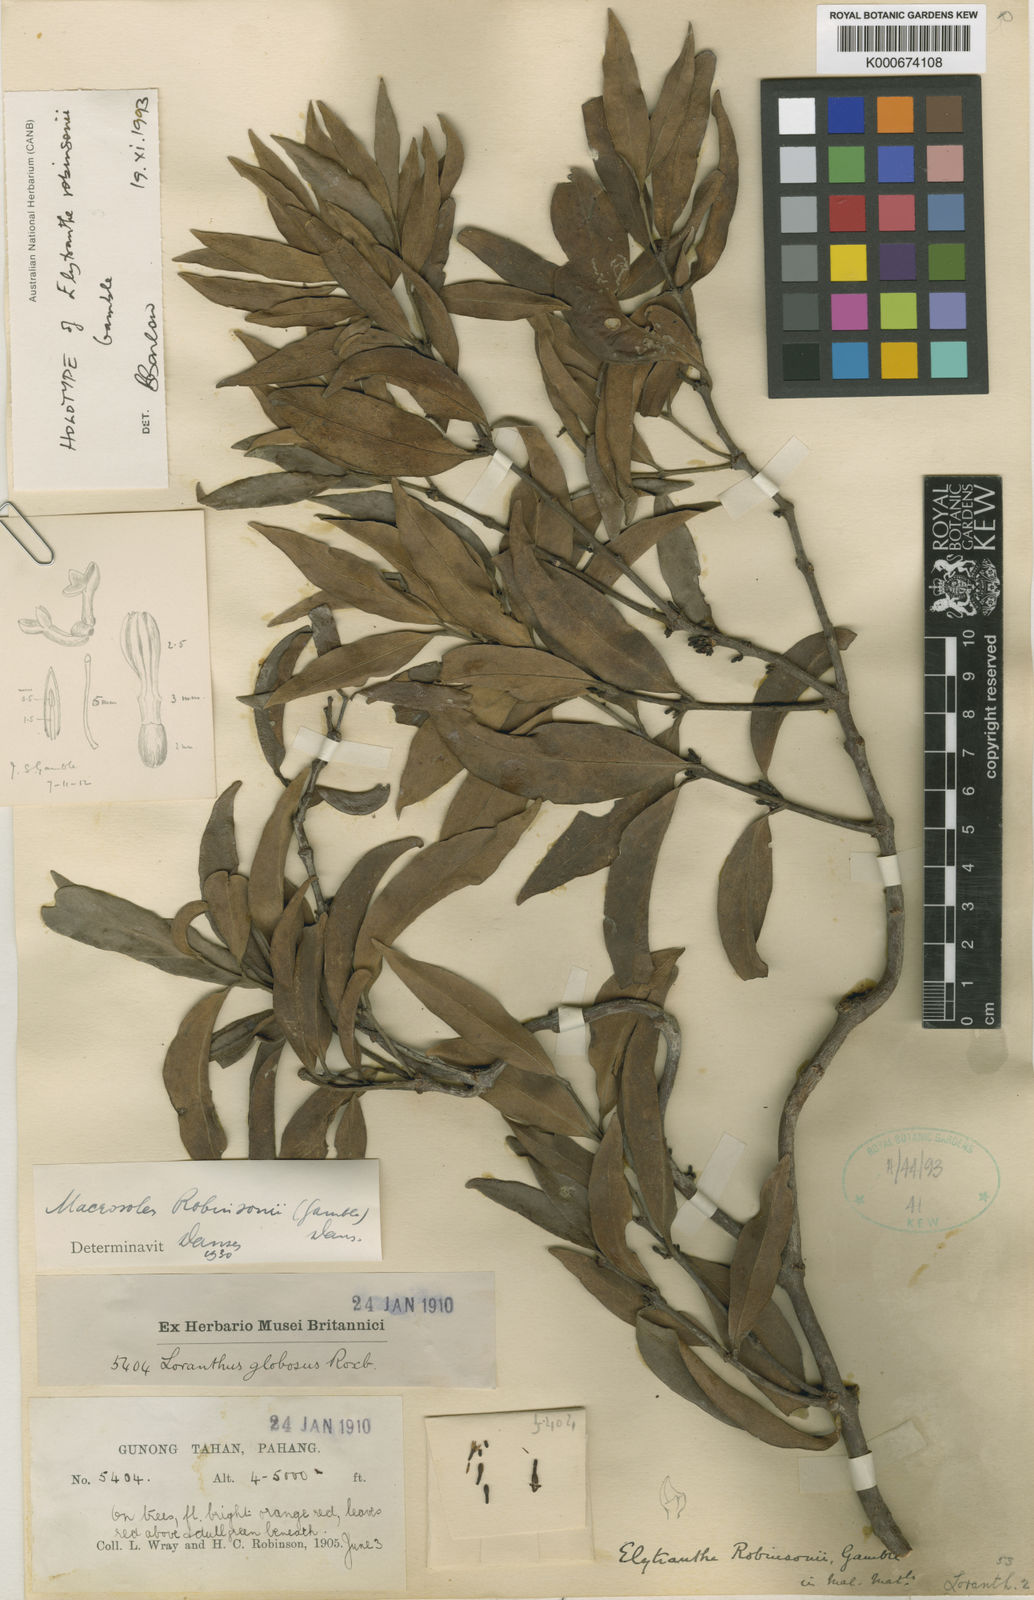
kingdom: Plantae
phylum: Tracheophyta
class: Magnoliopsida
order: Santalales
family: Loranthaceae
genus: Macrosolen
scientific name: Macrosolen robinsonii
